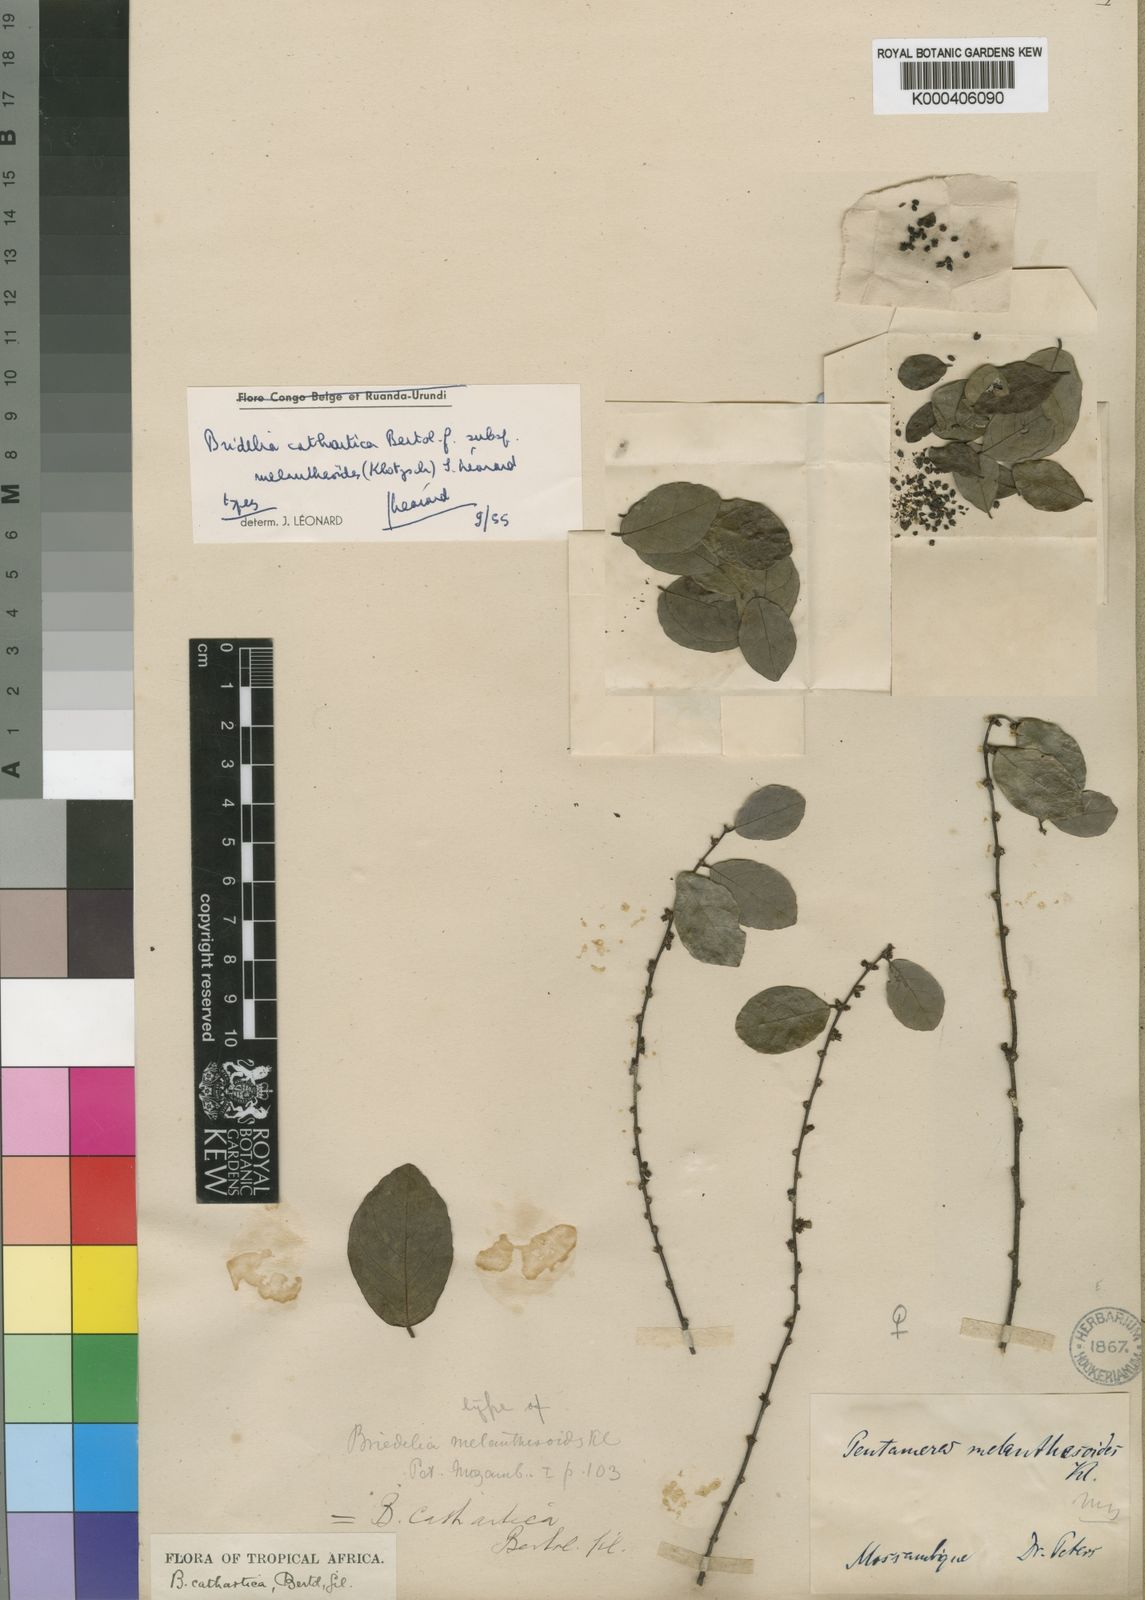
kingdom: Plantae
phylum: Tracheophyta
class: Magnoliopsida
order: Malpighiales
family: Phyllanthaceae
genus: Bridelia
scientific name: Bridelia cathartica
